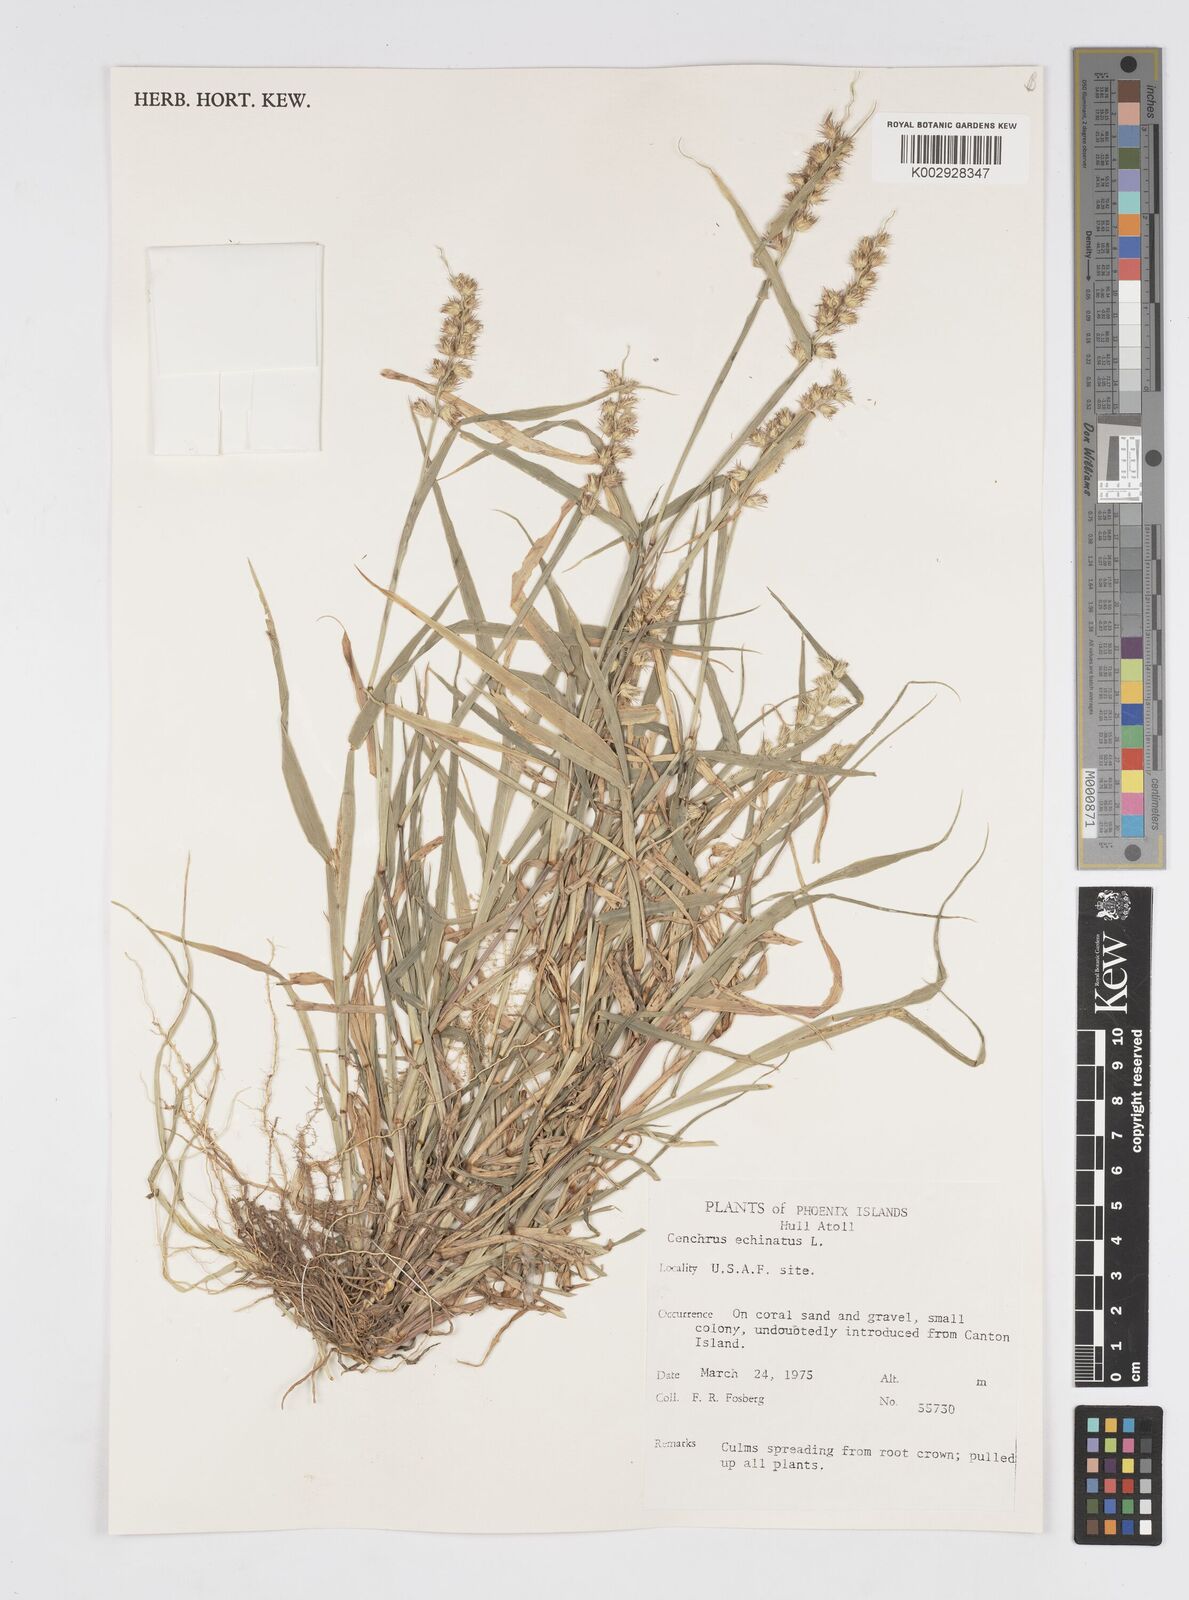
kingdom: Plantae
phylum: Tracheophyta
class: Liliopsida
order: Poales
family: Poaceae
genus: Cenchrus
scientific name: Cenchrus echinatus
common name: Southern sandbur
